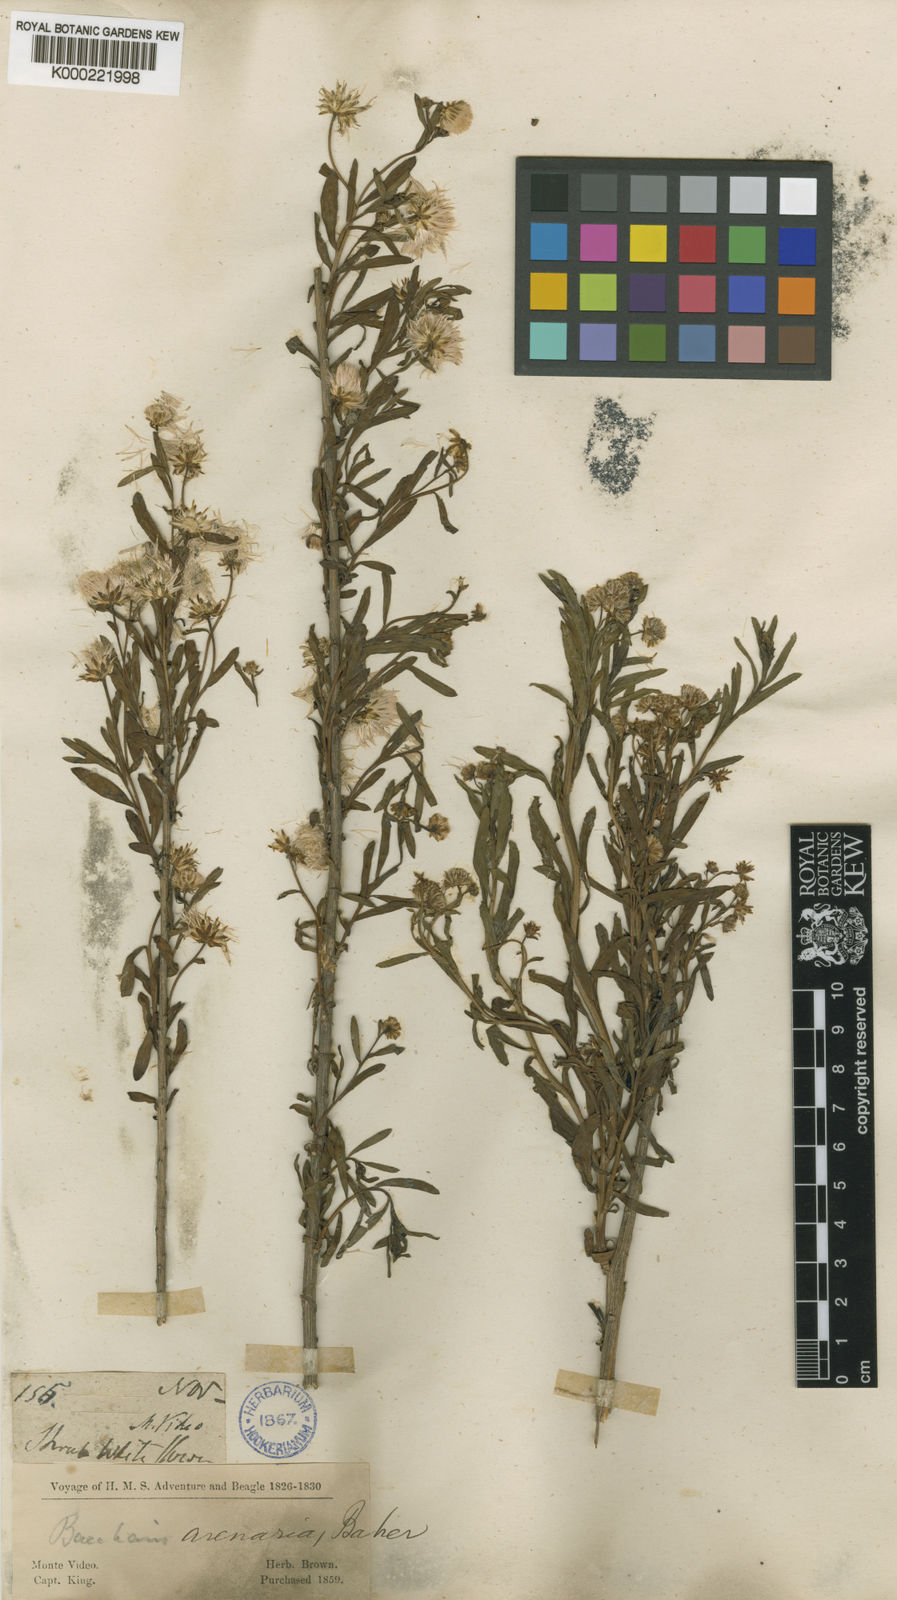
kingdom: Plantae
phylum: Tracheophyta
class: Magnoliopsida
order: Asterales
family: Asteraceae
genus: Baccharis
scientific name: Baccharis arenaria
